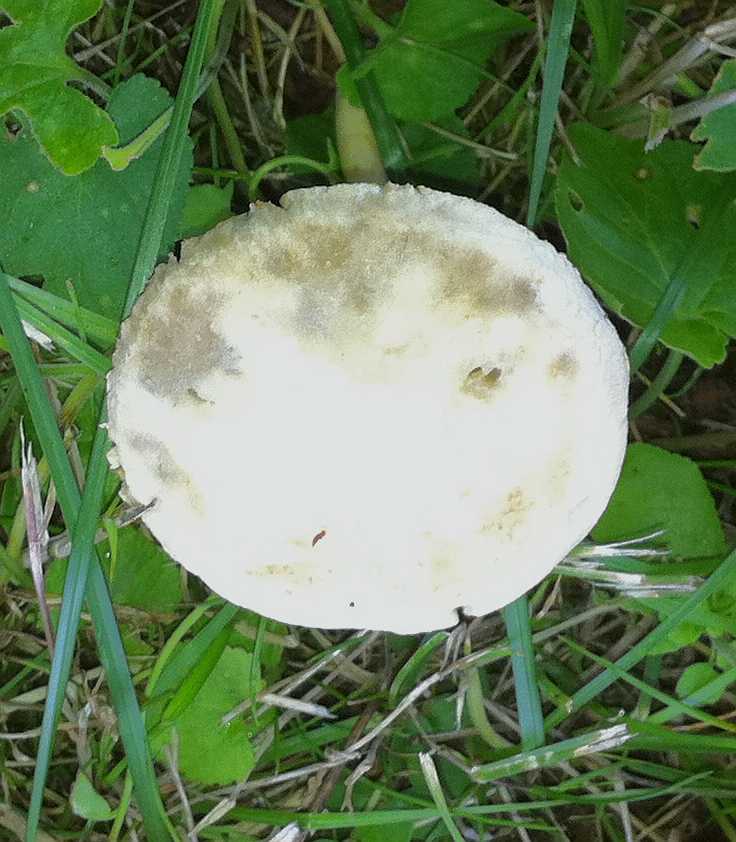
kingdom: Fungi
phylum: Basidiomycota
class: Agaricomycetes
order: Agaricales
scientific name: Agaricales
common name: champignonordenen
